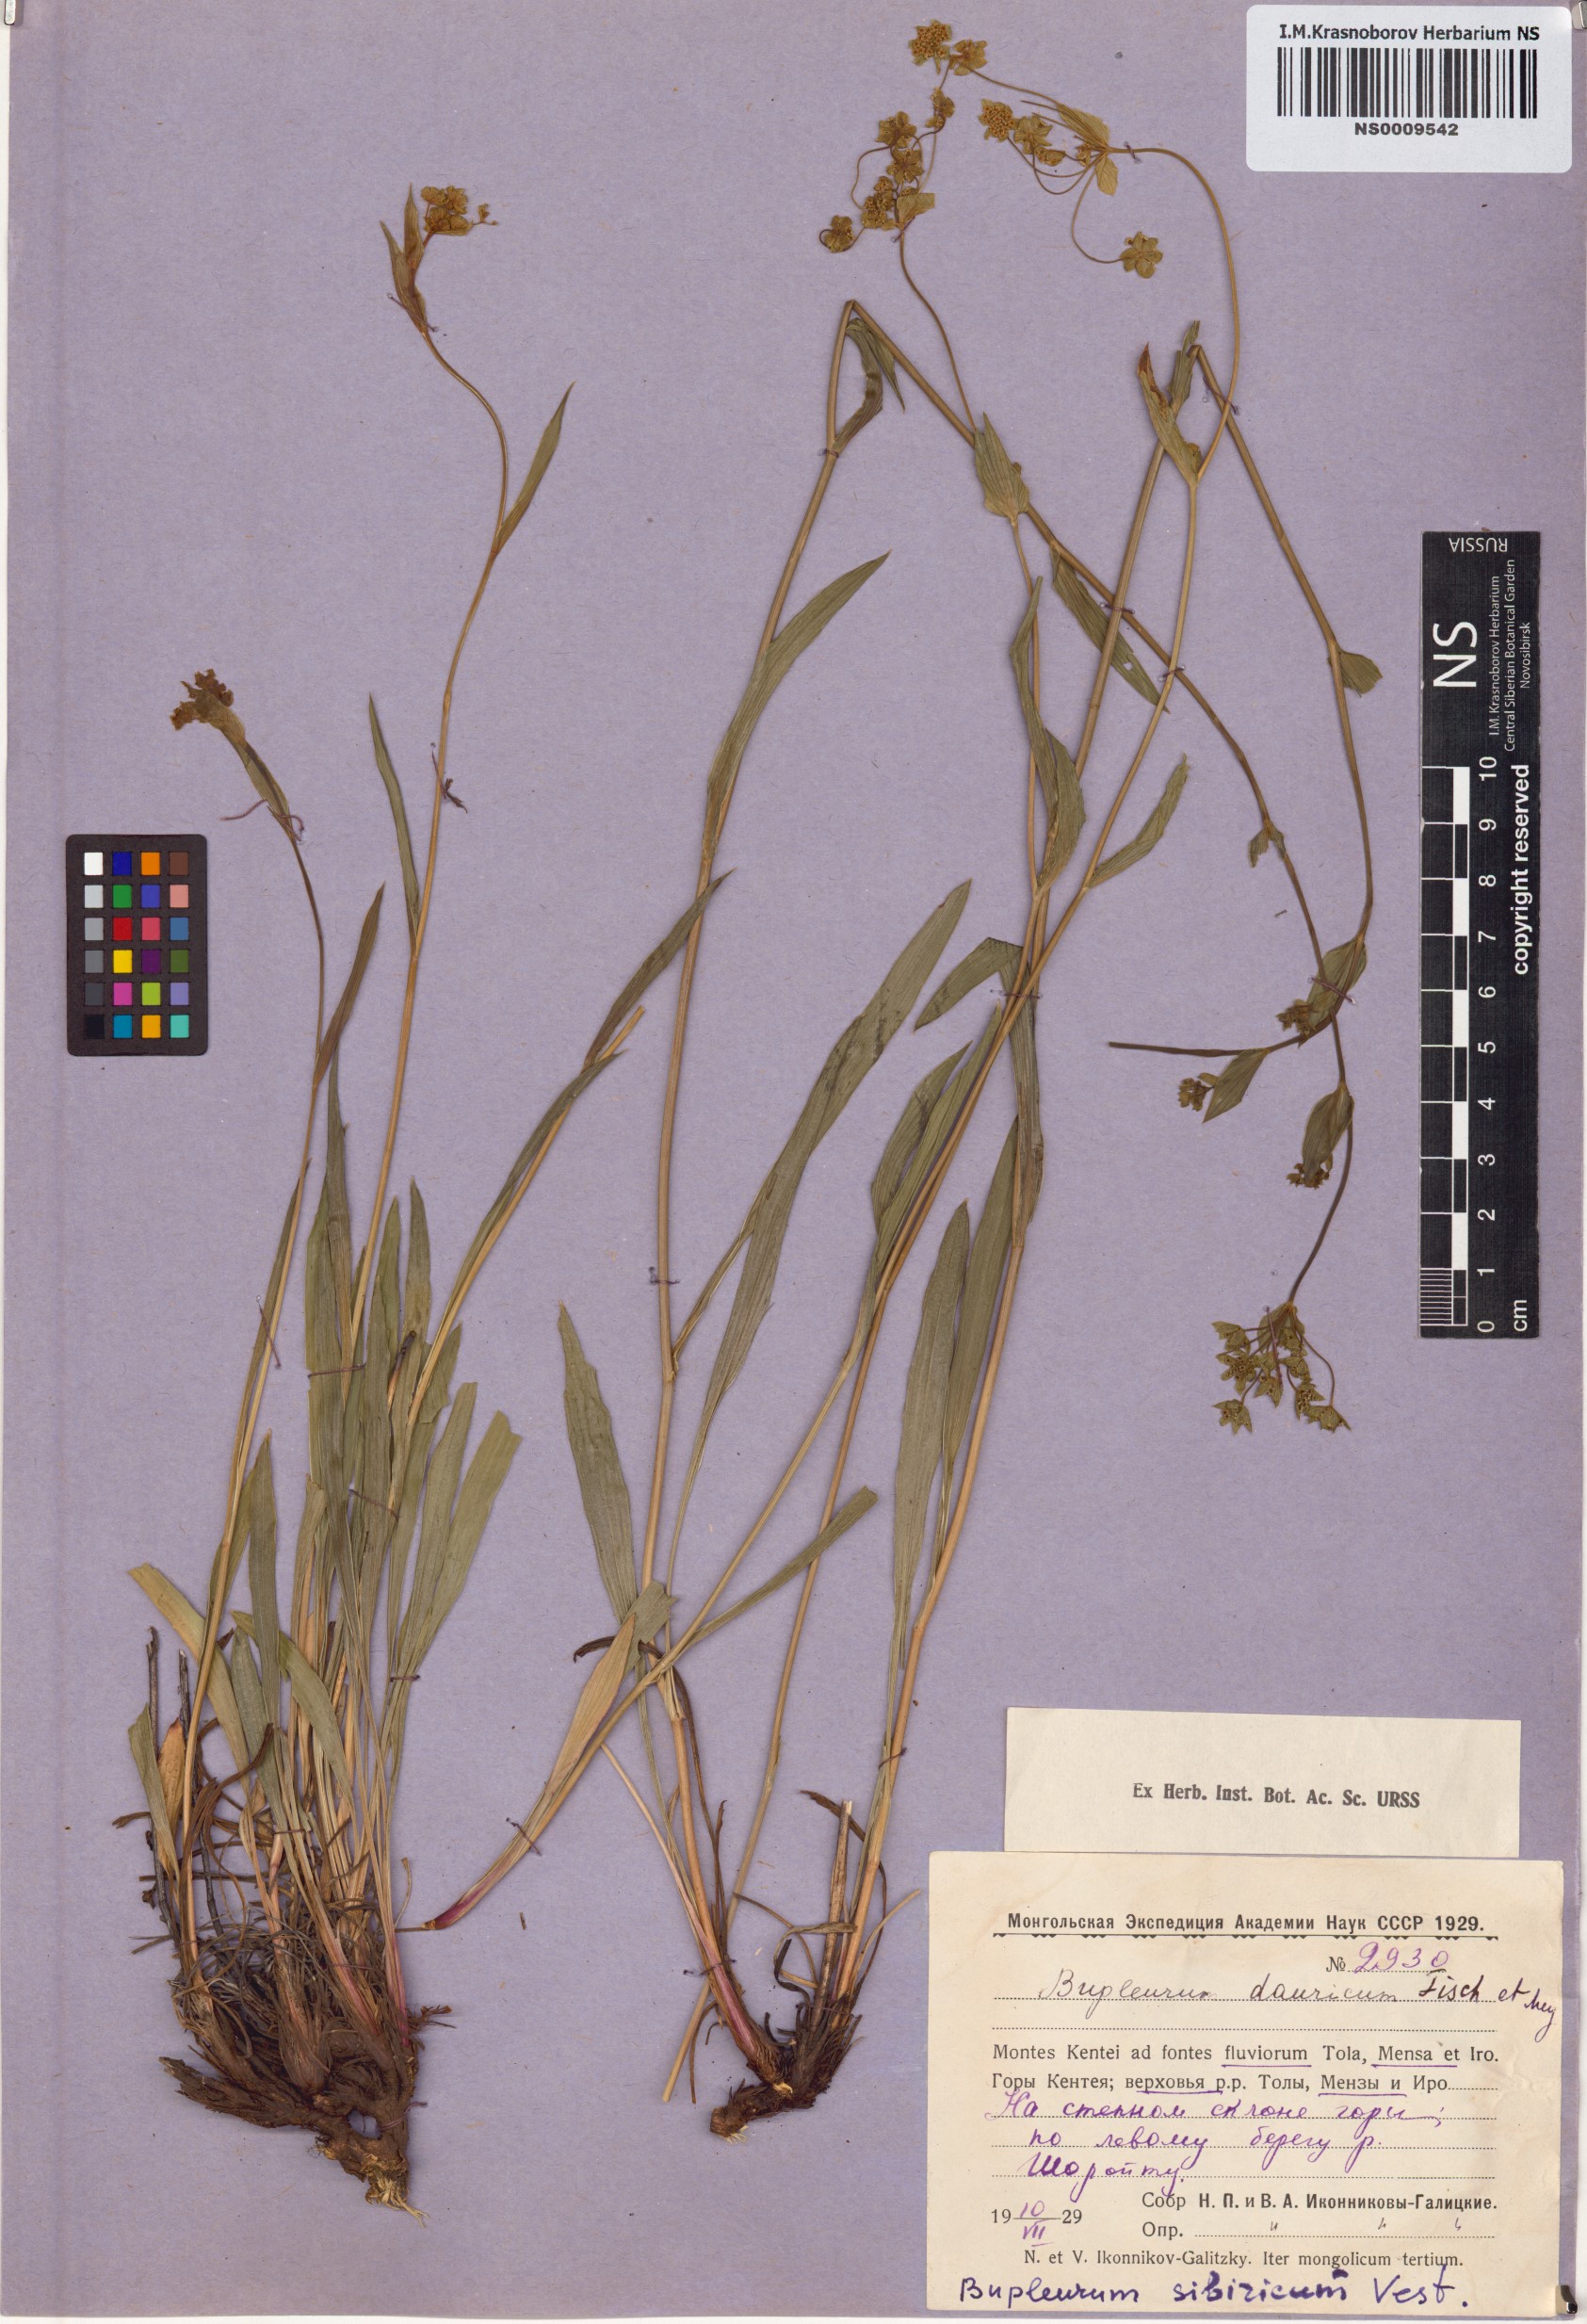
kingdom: Plantae
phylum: Tracheophyta
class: Magnoliopsida
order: Apiales
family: Apiaceae
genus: Bupleurum
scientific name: Bupleurum sibiricum
